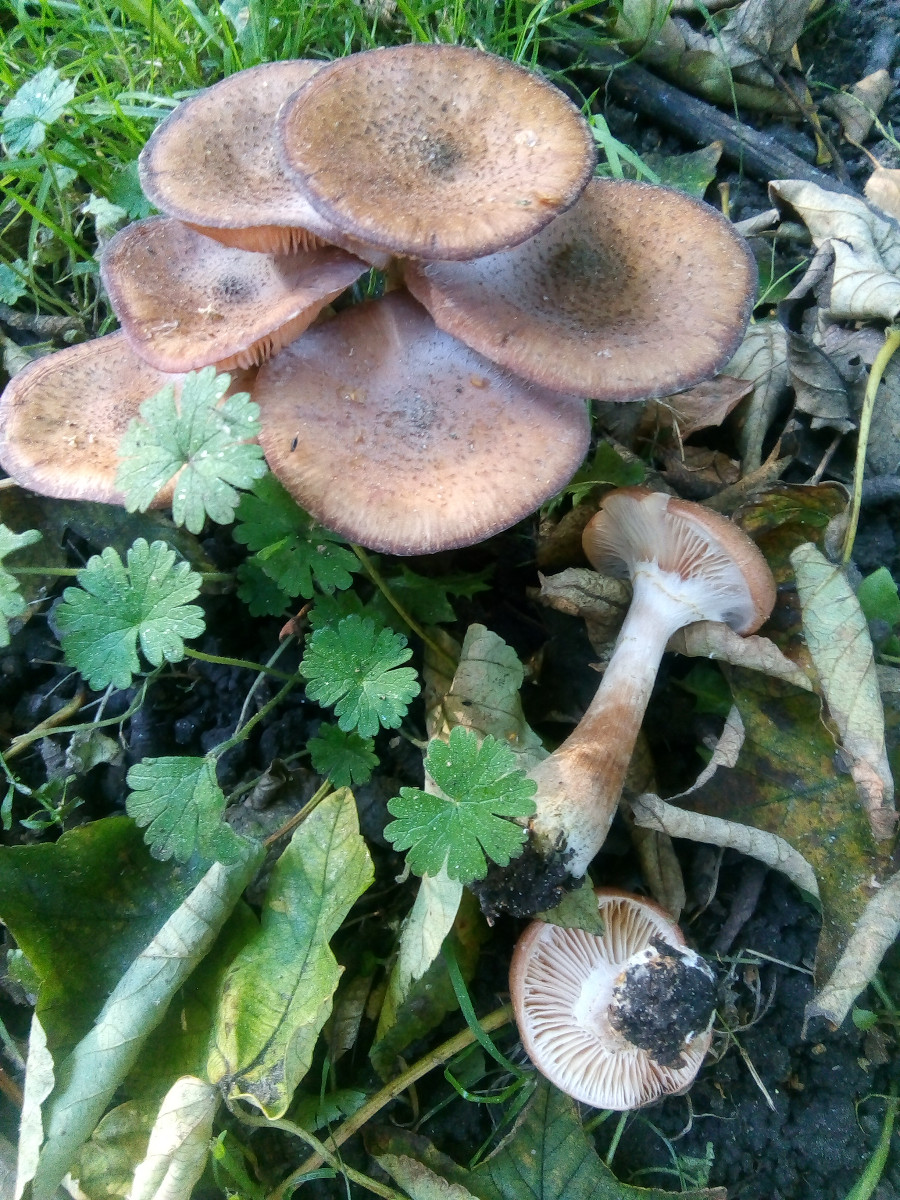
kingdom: Fungi
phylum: Basidiomycota
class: Agaricomycetes
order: Agaricales
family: Physalacriaceae
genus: Armillaria
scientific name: Armillaria lutea
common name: køllestokket honningsvamp
